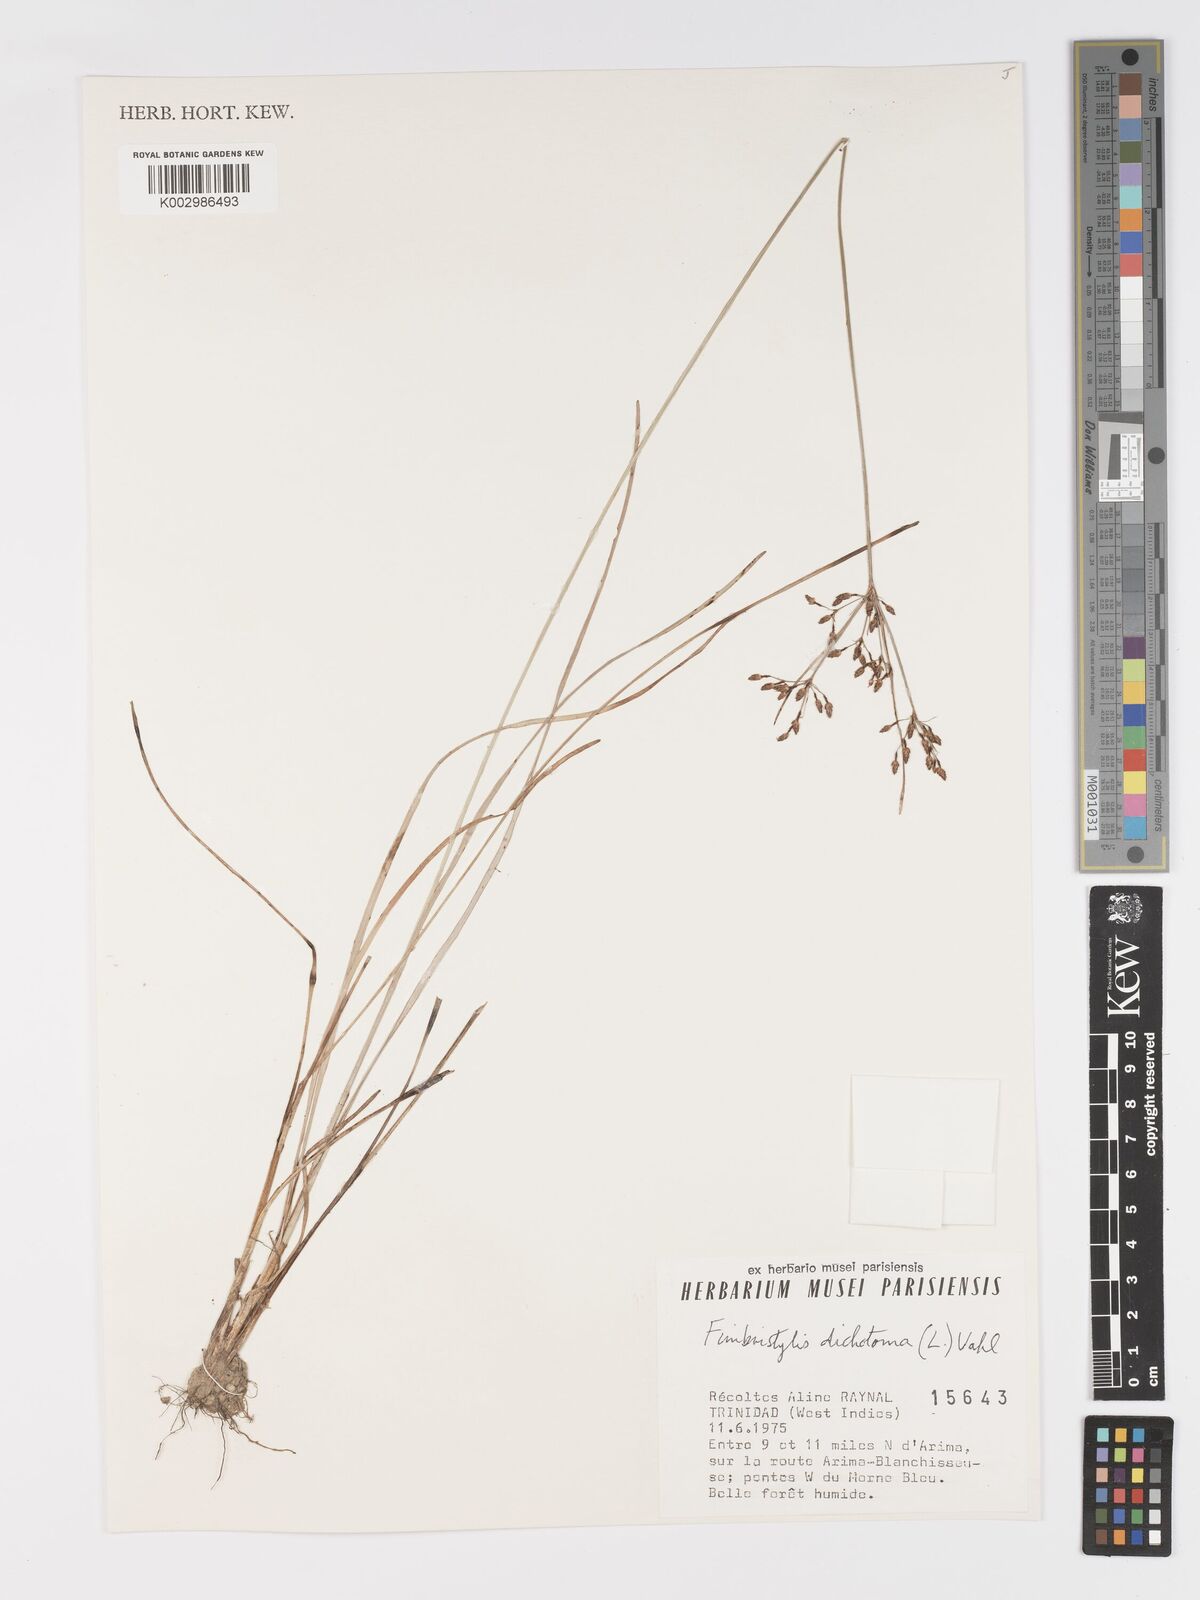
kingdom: Plantae
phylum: Tracheophyta
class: Liliopsida
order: Poales
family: Cyperaceae
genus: Fimbristylis
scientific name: Fimbristylis dichotoma
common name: Forked fimbry
